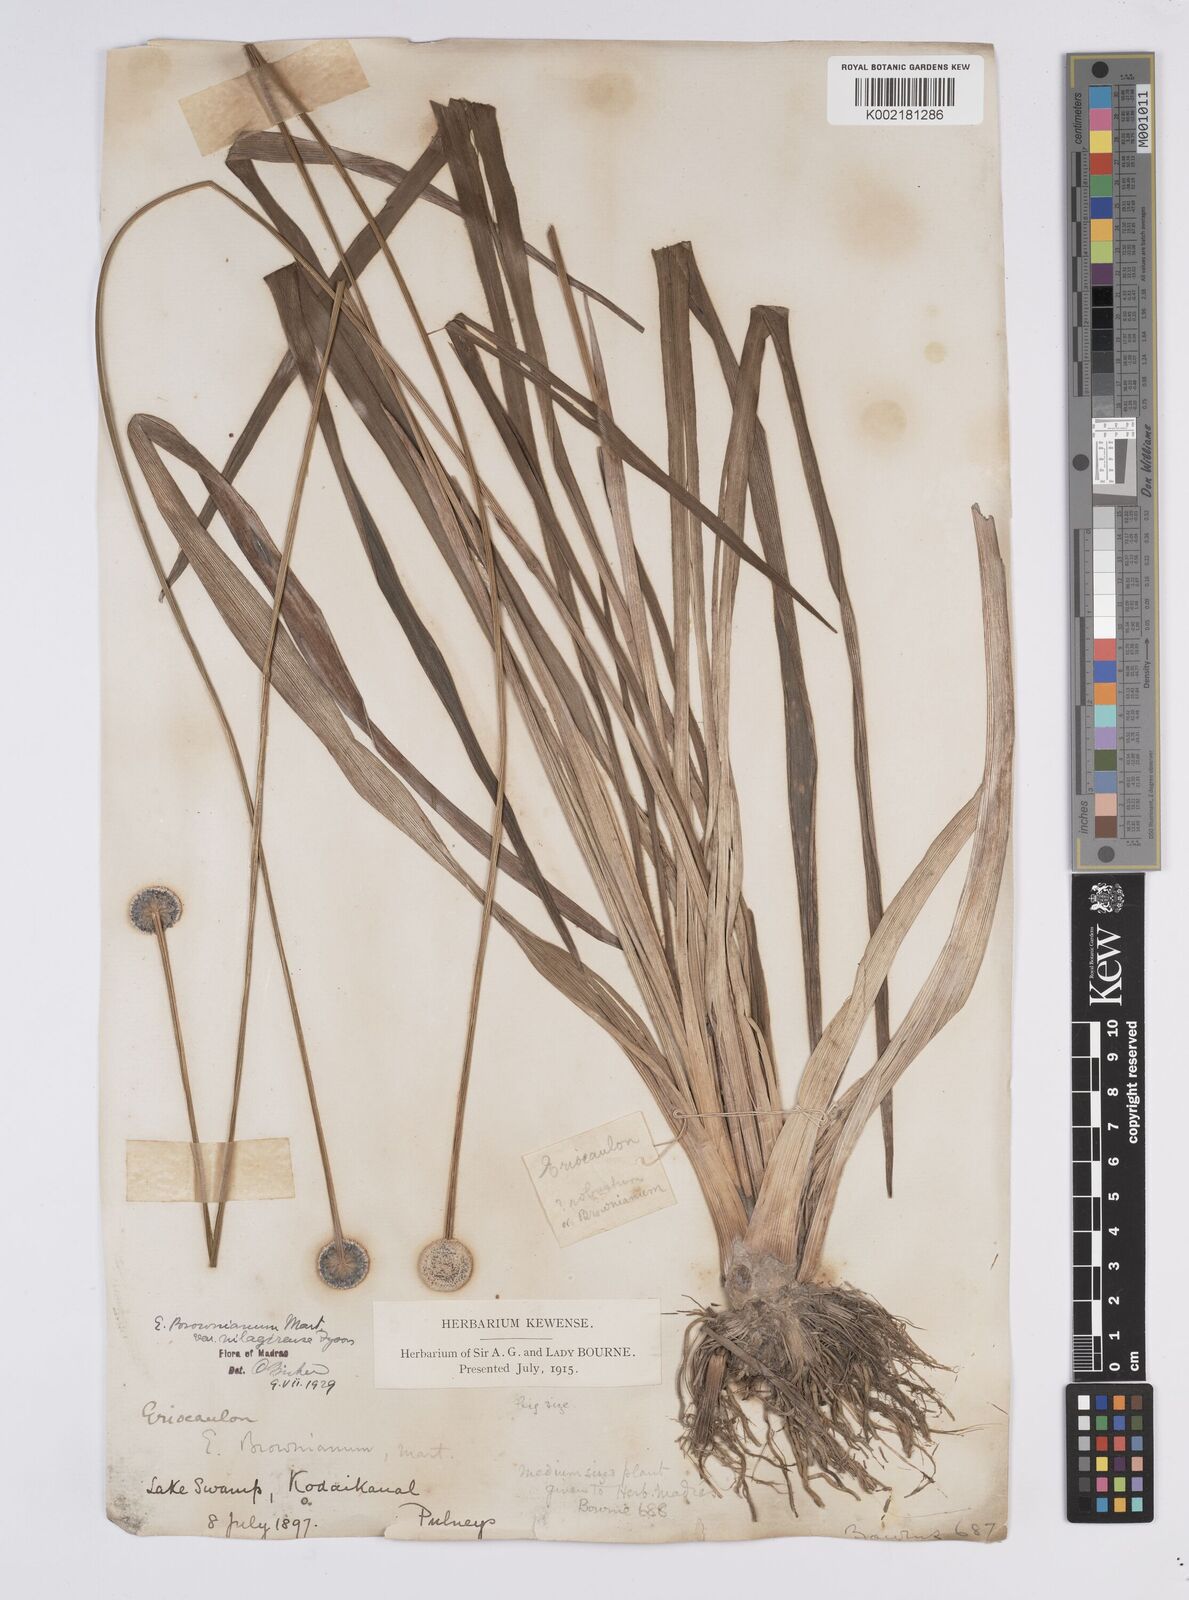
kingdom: Plantae
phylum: Tracheophyta
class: Liliopsida
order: Poales
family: Eriocaulaceae
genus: Eriocaulon
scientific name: Eriocaulon brownianum
